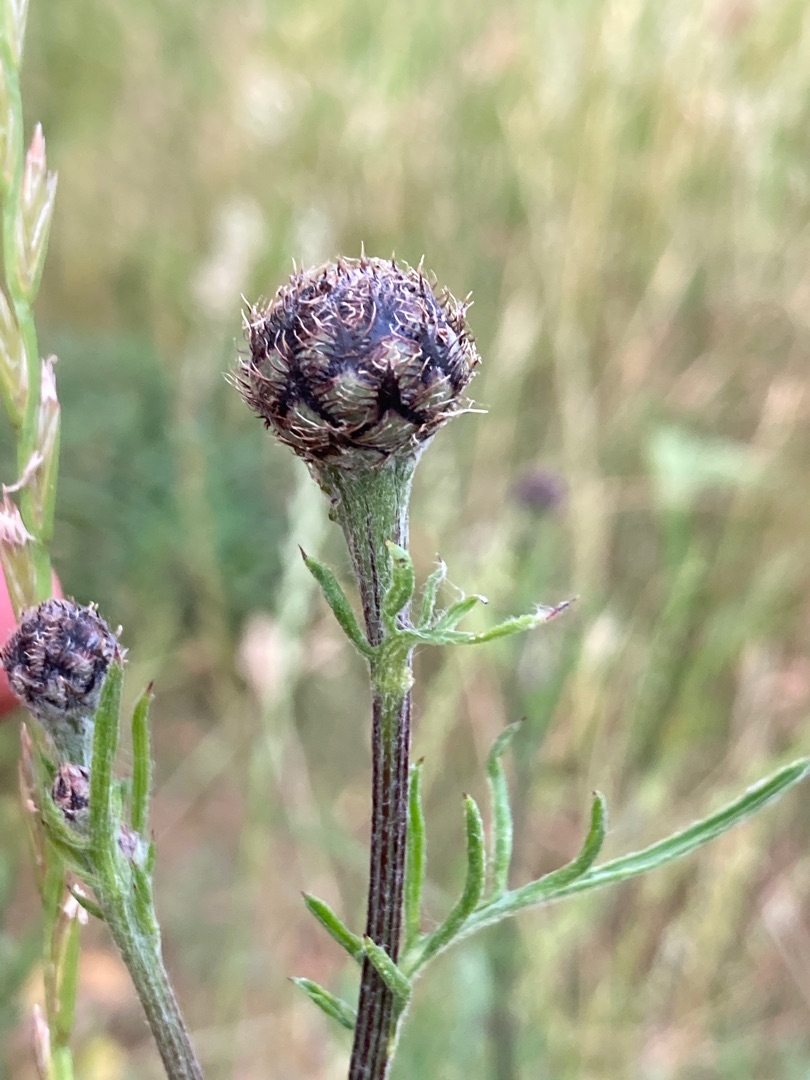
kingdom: Plantae
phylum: Tracheophyta
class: Magnoliopsida
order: Asterales
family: Asteraceae
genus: Centaurea
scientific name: Centaurea scabiosa
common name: Stor knopurt
